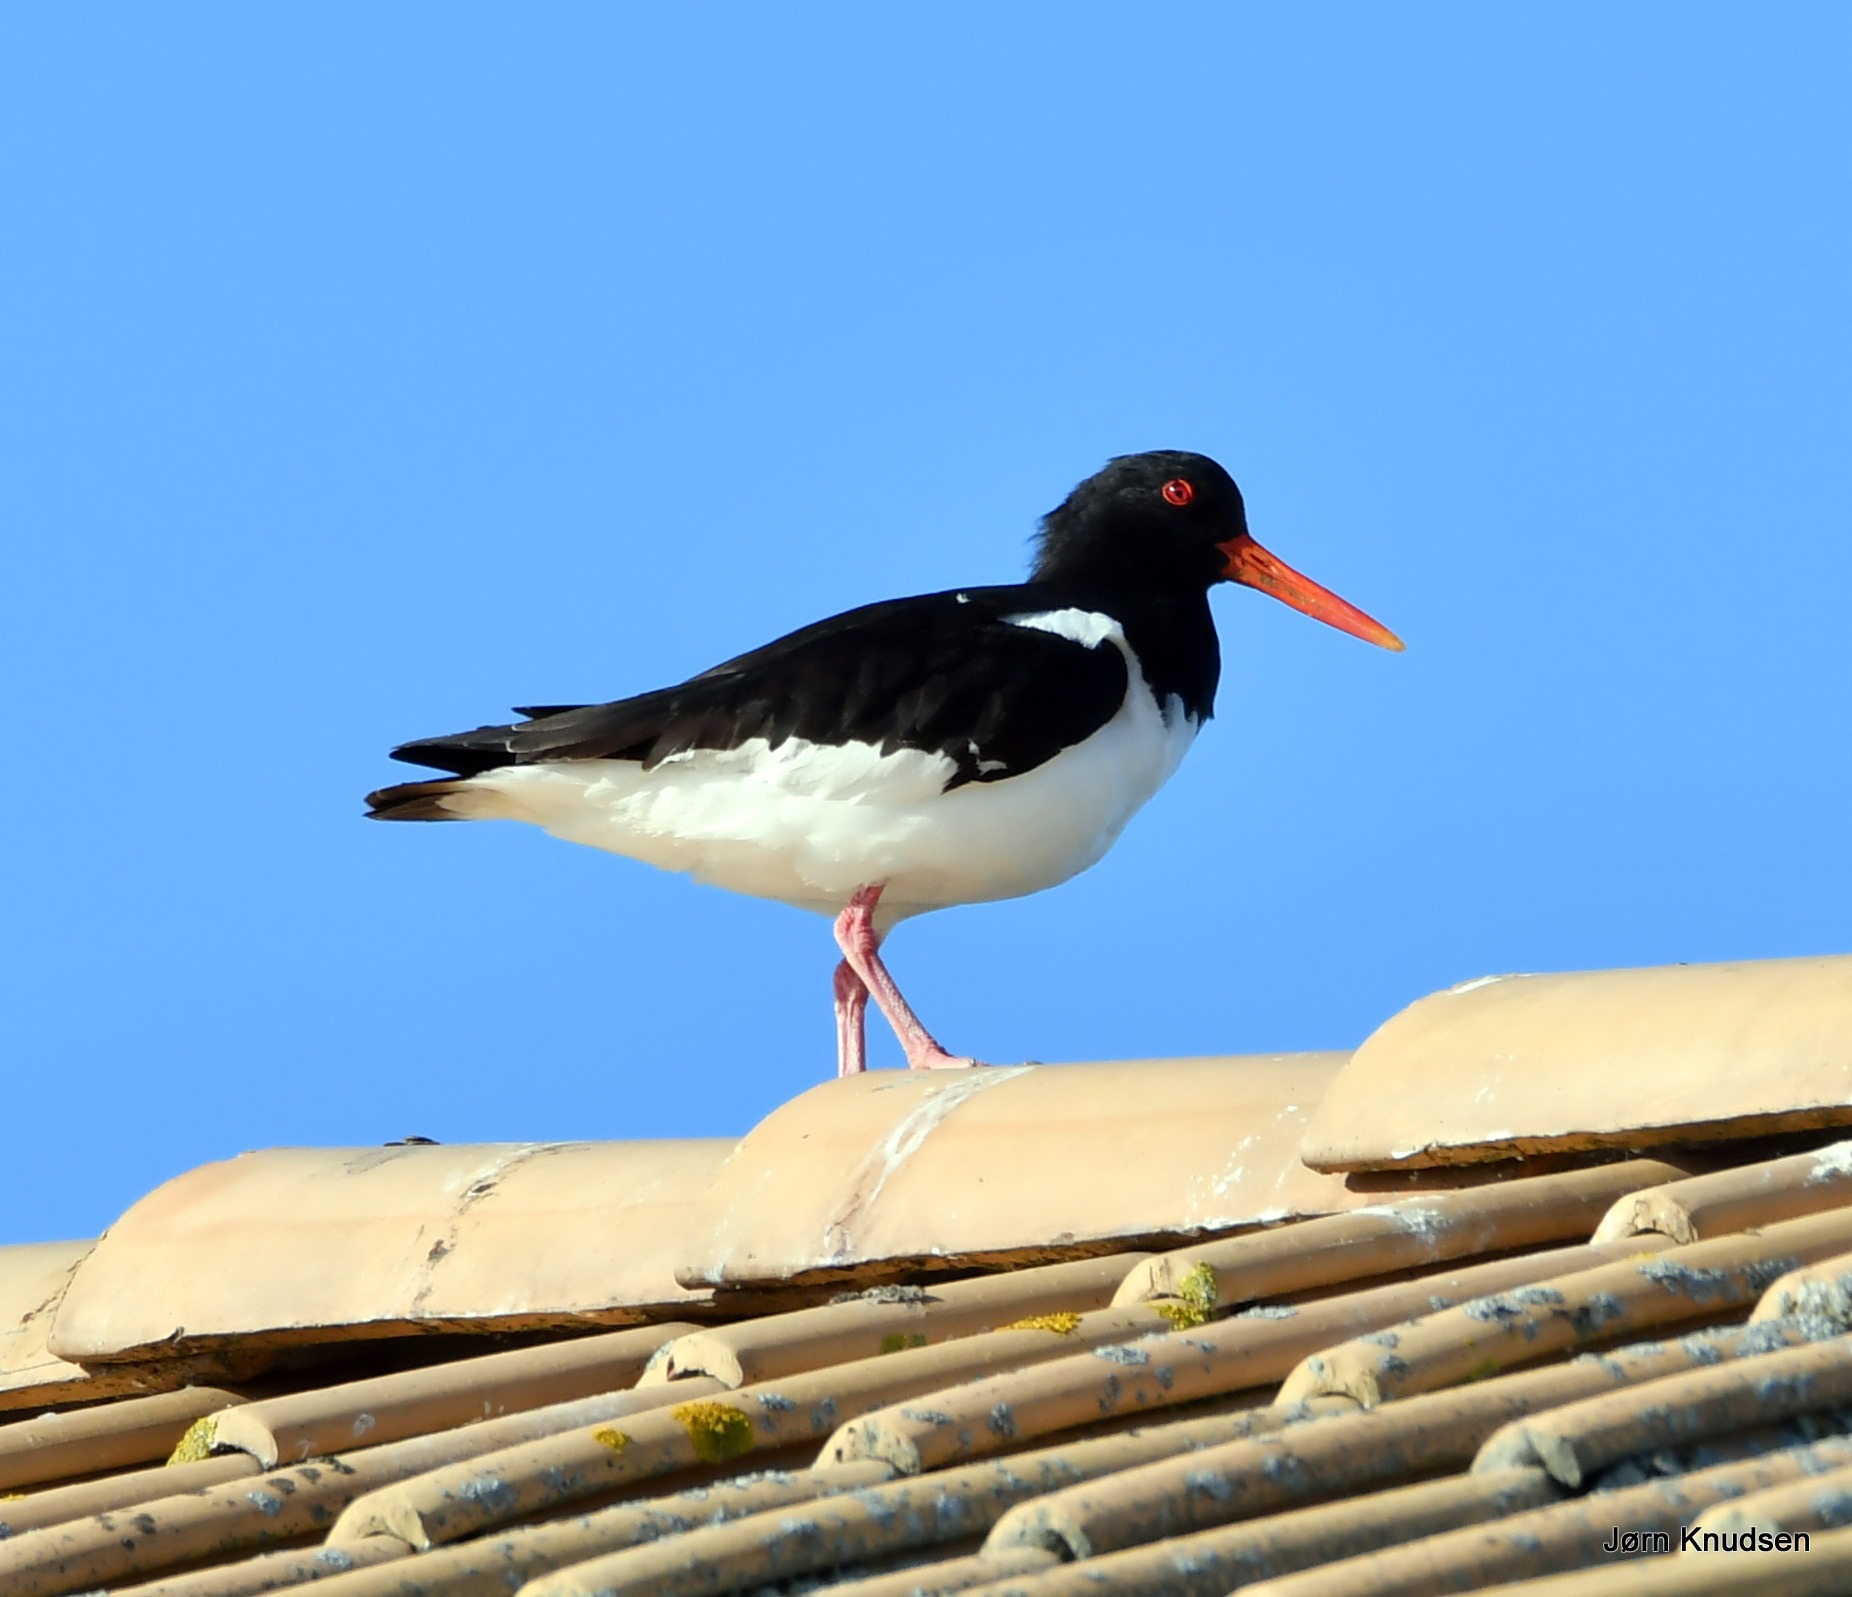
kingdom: Animalia
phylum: Chordata
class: Aves
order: Charadriiformes
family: Haematopodidae
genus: Haematopus
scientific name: Haematopus ostralegus
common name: Strandskade
